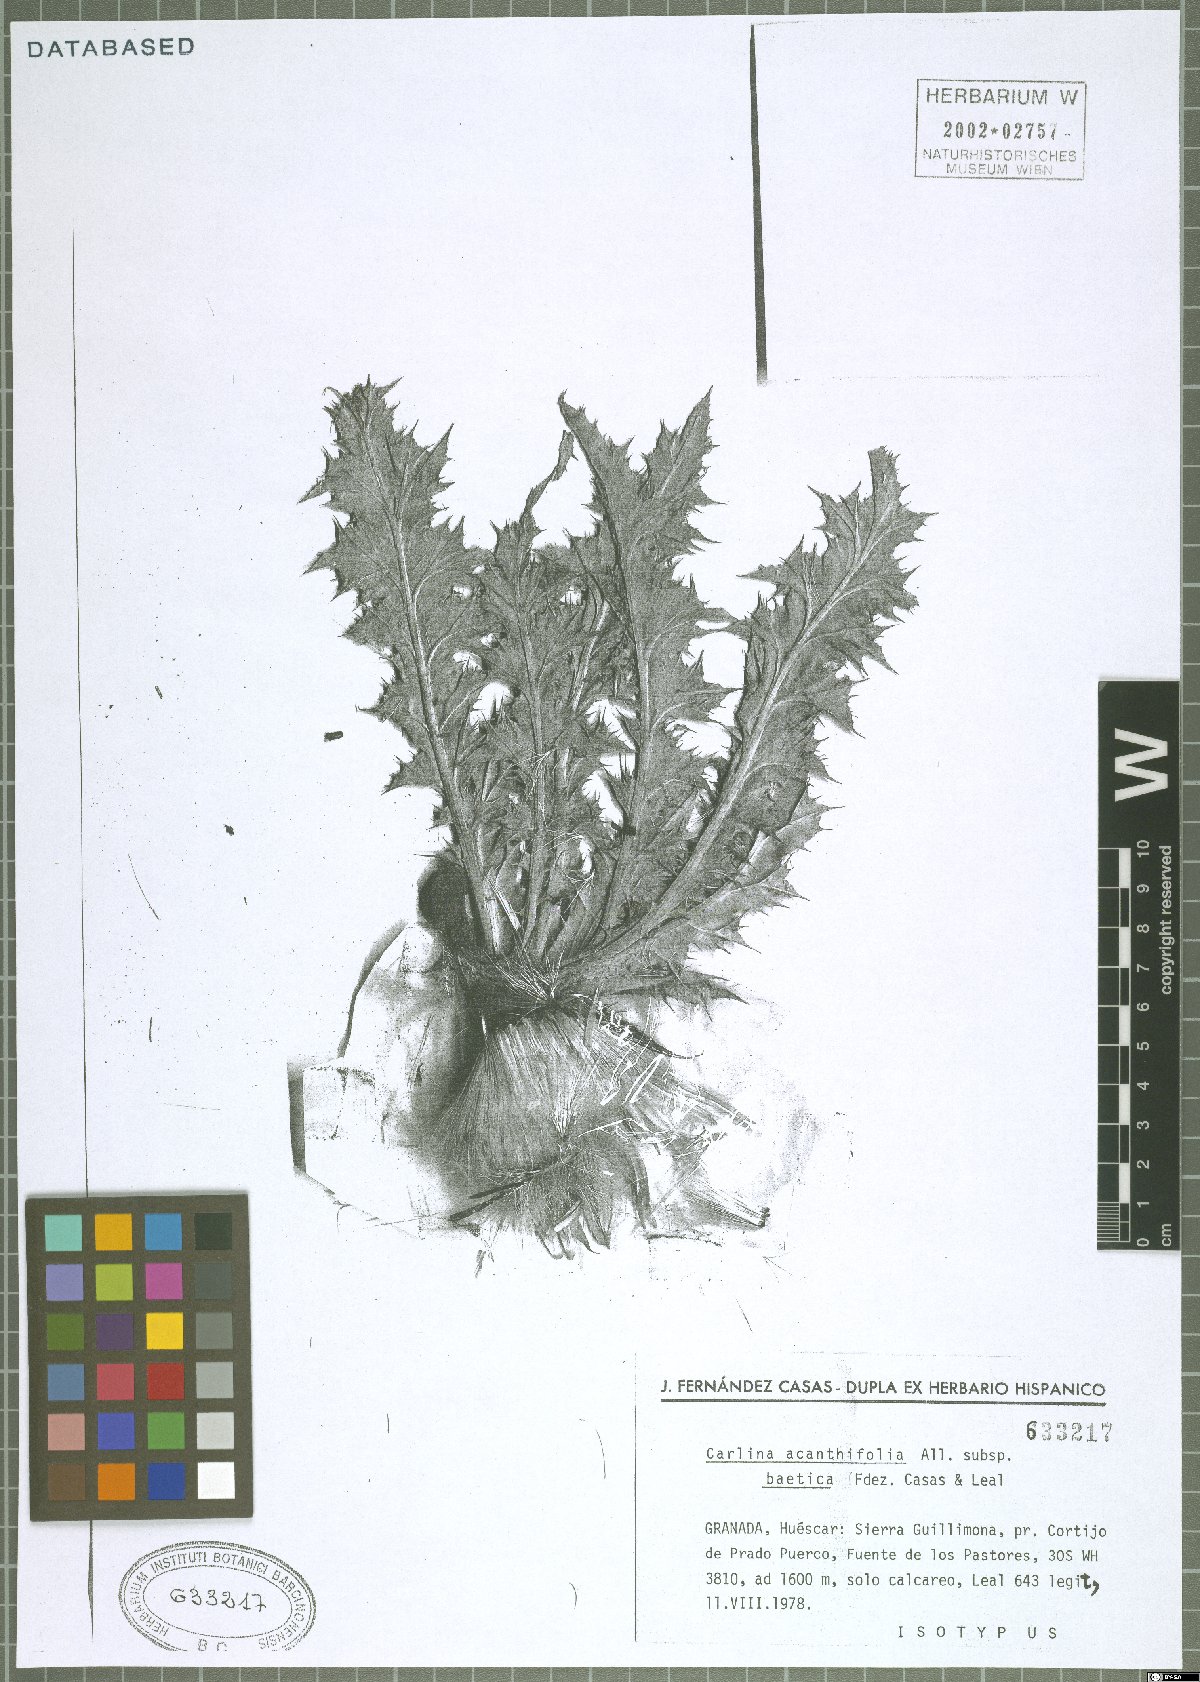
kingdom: Plantae
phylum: Tracheophyta
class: Magnoliopsida
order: Asterales
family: Asteraceae
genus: Carlina
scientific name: Carlina acanthifolia
